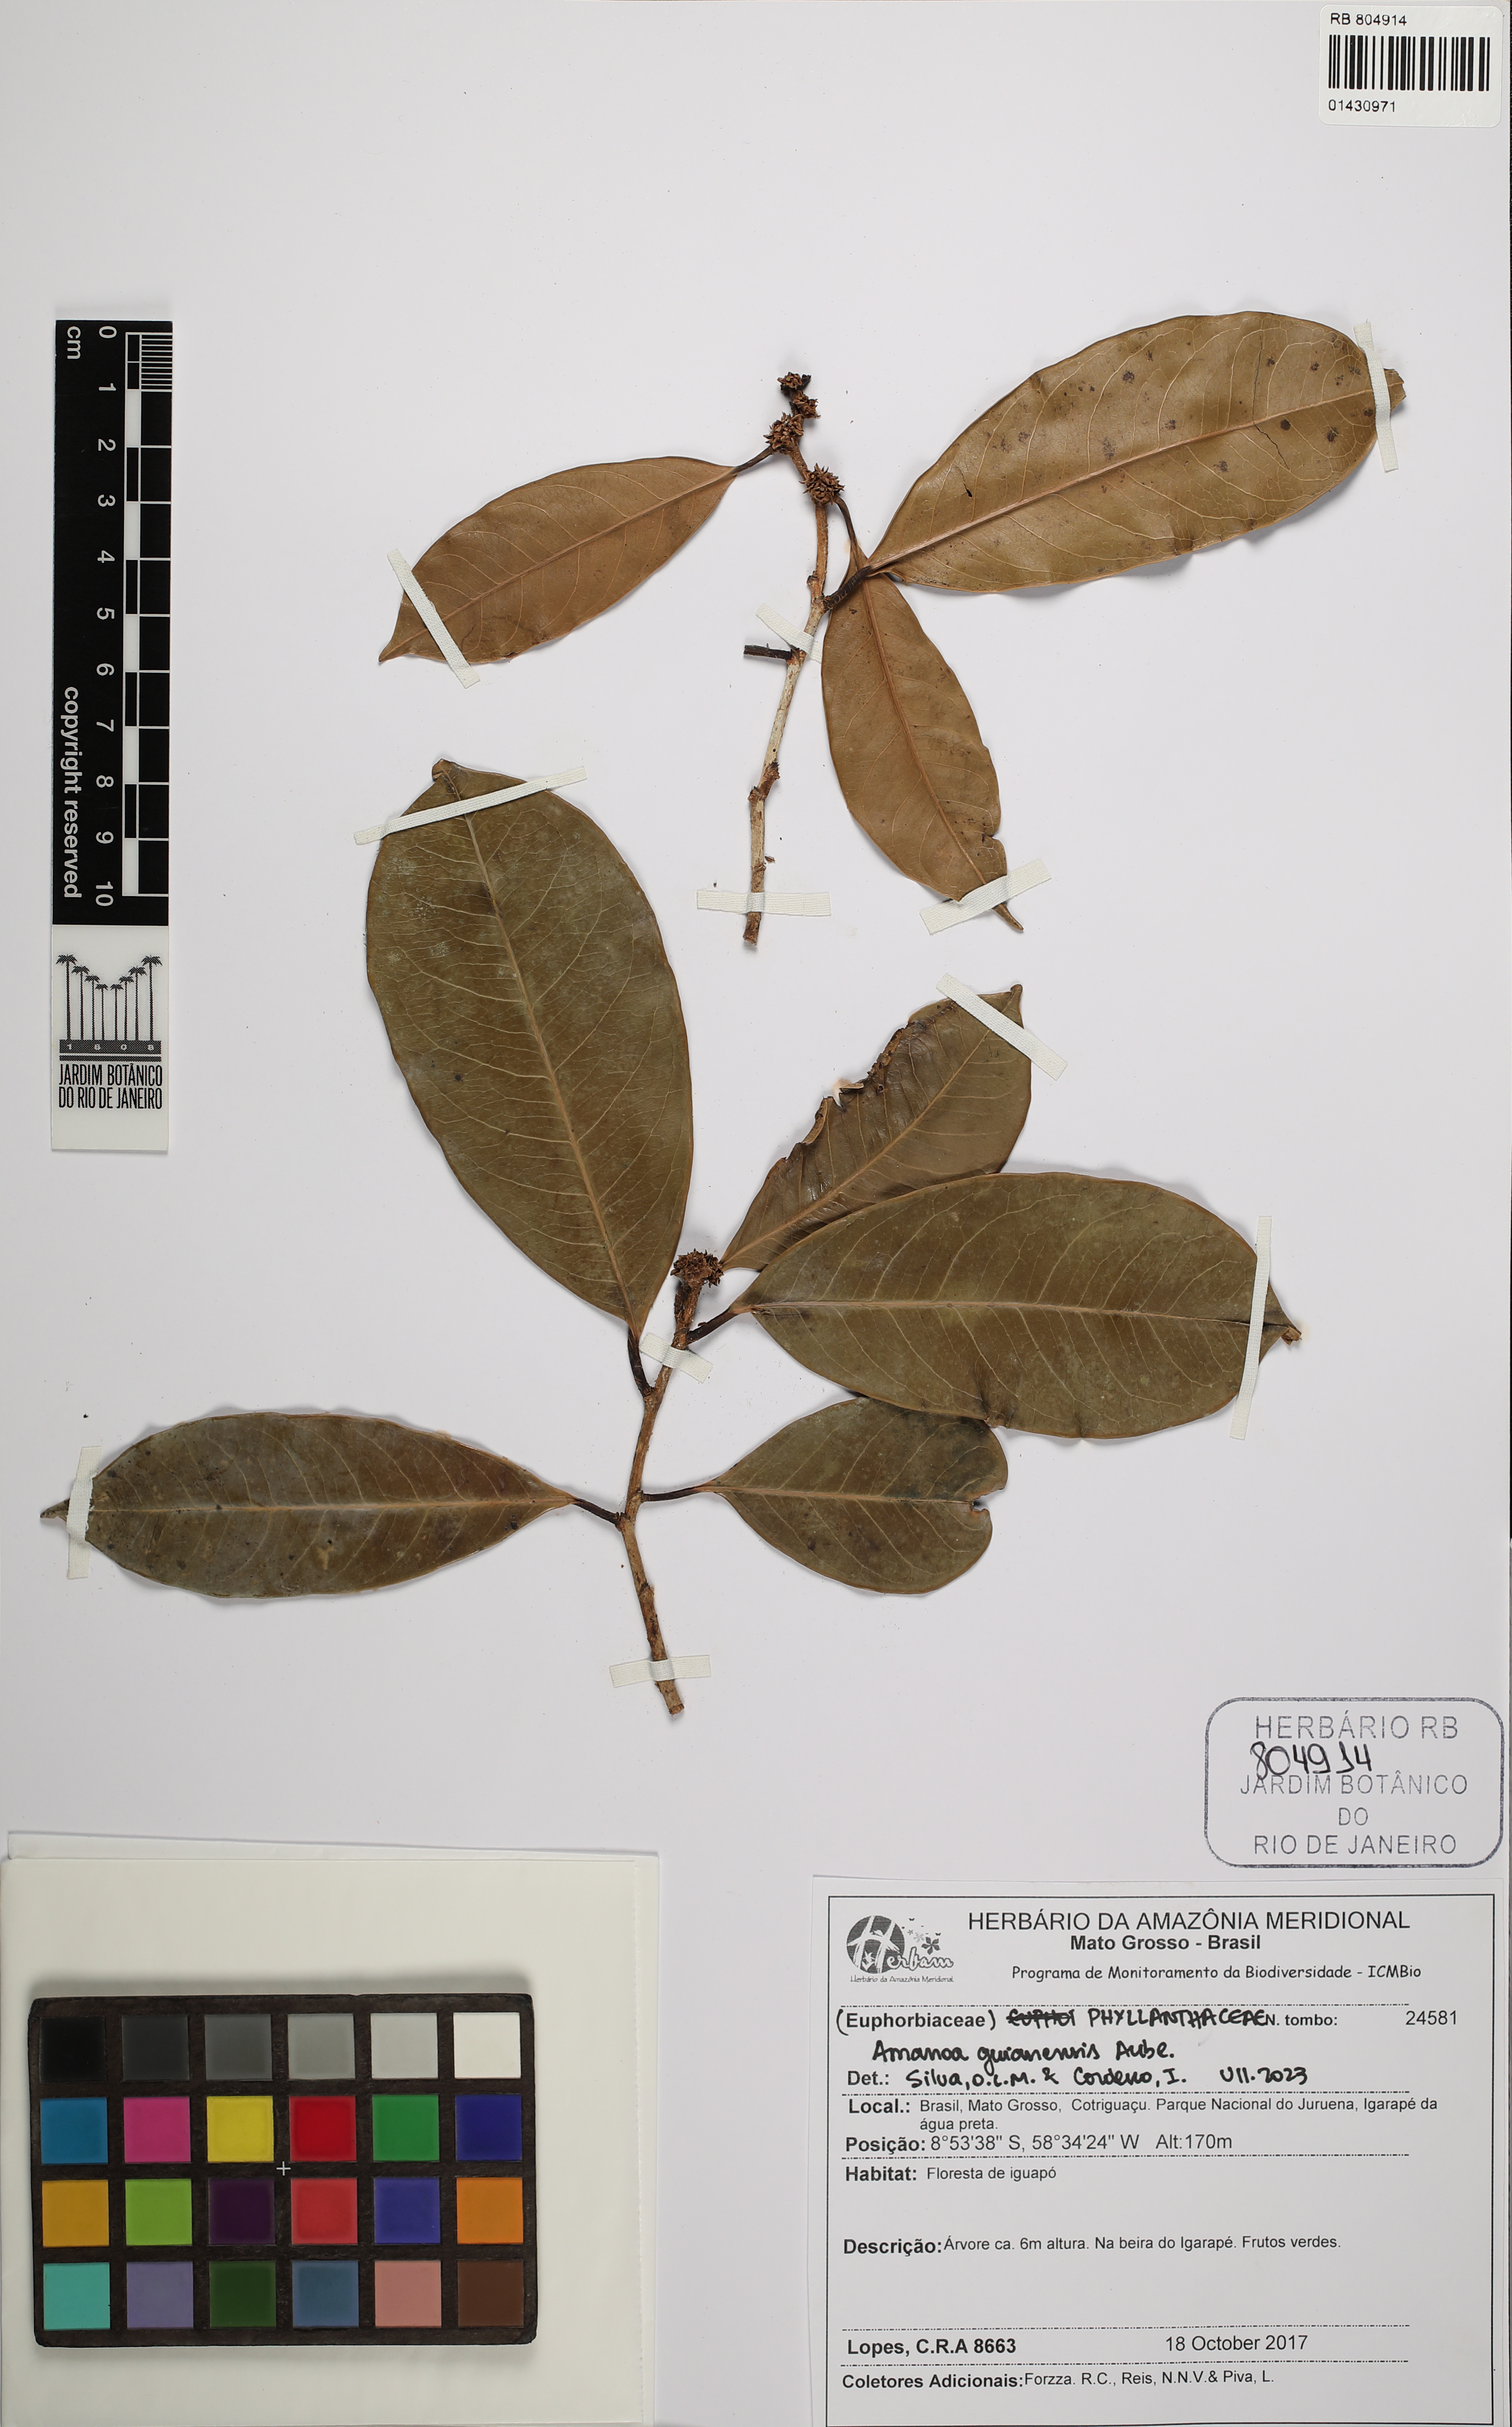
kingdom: Plantae
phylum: Tracheophyta
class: Magnoliopsida
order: Malpighiales
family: Phyllanthaceae
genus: Amanoa
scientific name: Amanoa guianensis
